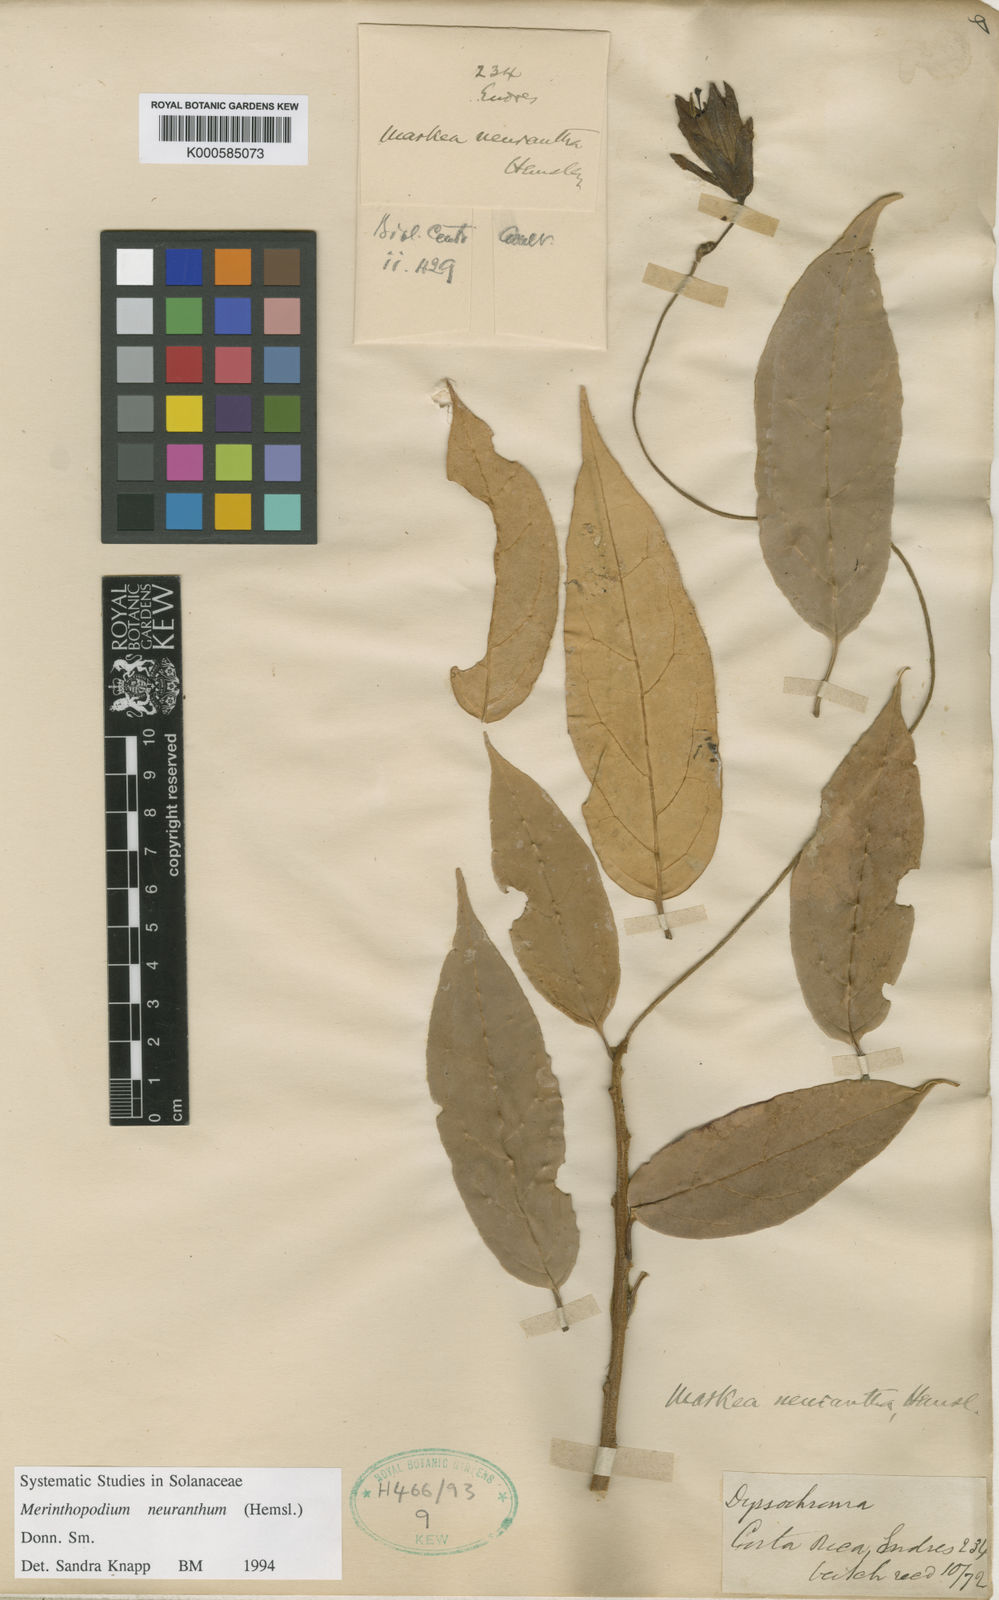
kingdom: Plantae
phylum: Tracheophyta
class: Magnoliopsida
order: Solanales
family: Solanaceae
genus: Merinthopodium
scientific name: Merinthopodium neuranthum
